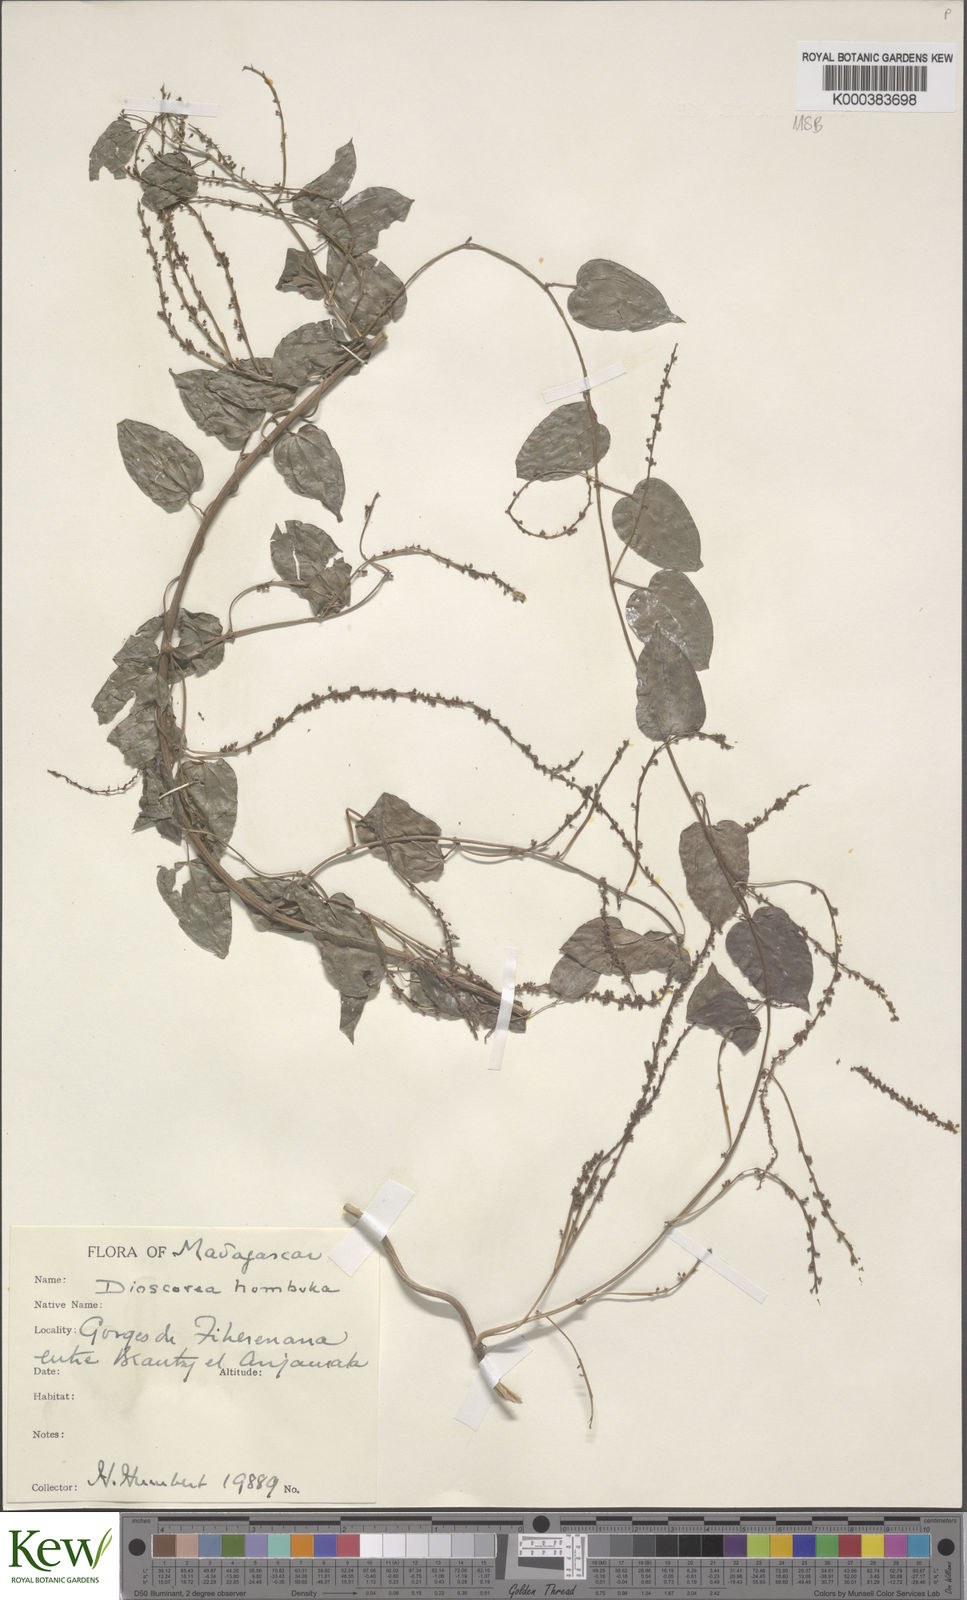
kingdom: Plantae
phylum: Tracheophyta
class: Liliopsida
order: Dioscoreales
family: Dioscoreaceae
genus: Dioscorea
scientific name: Dioscorea
